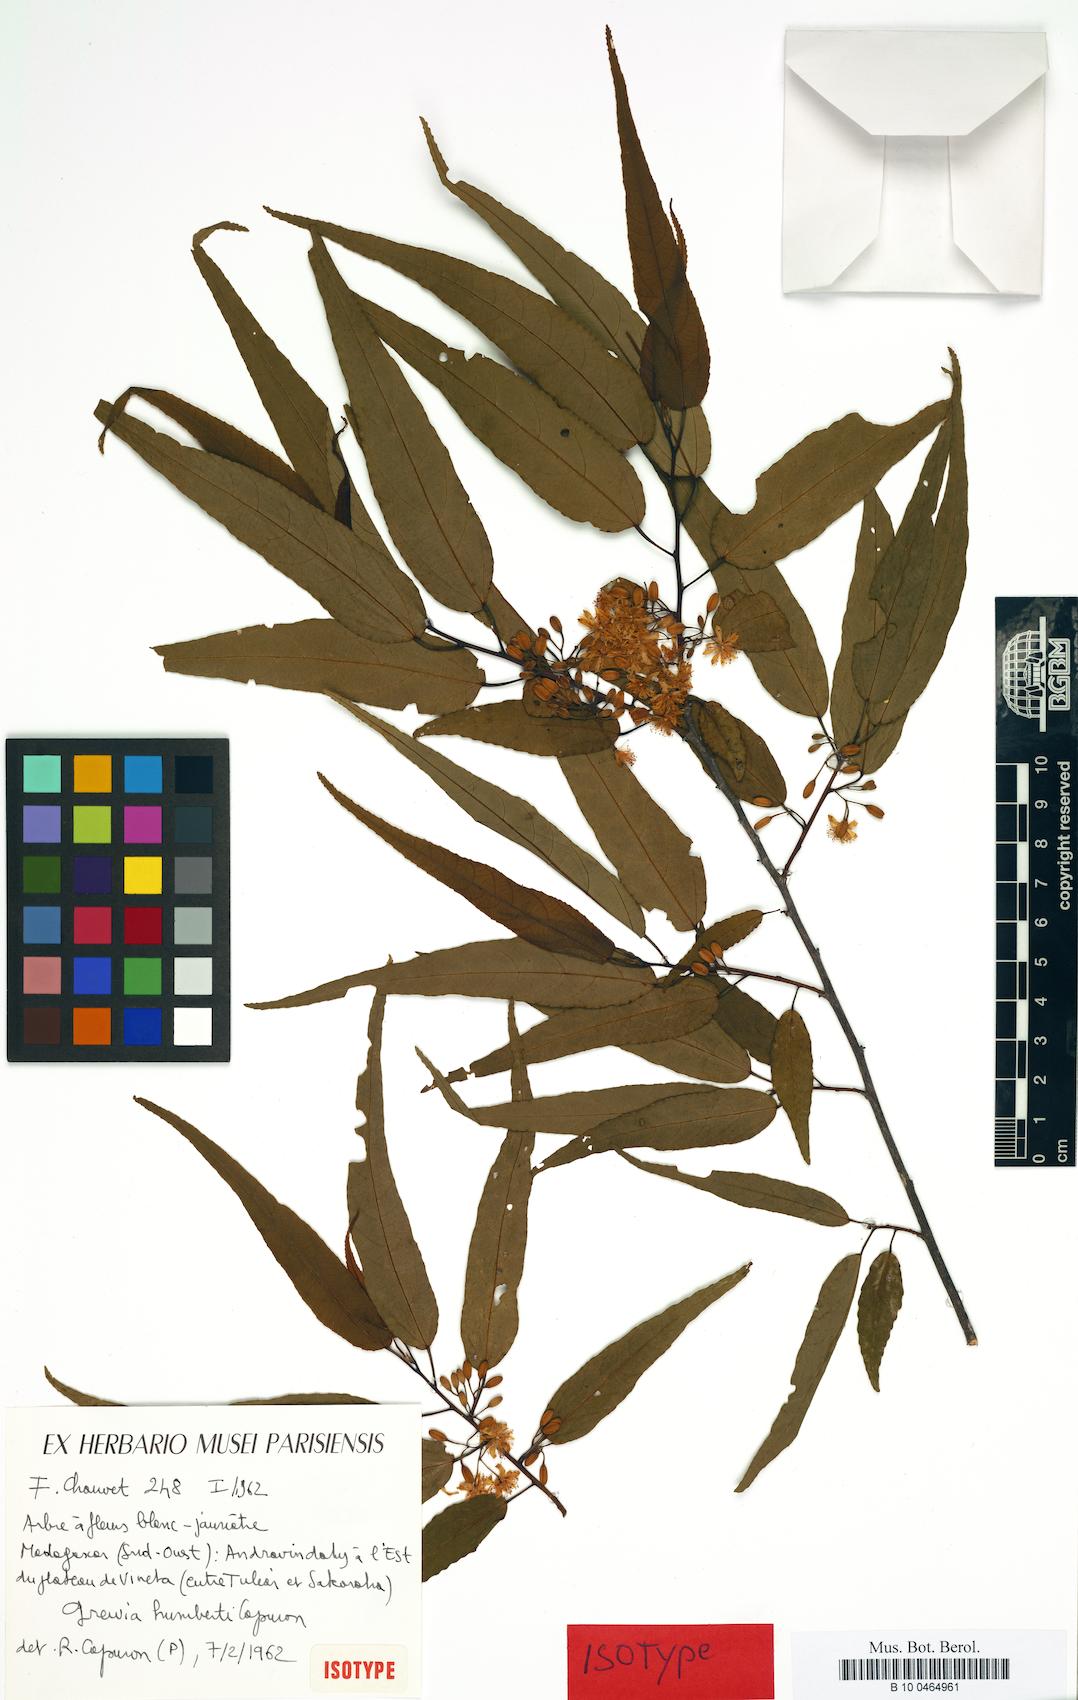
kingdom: Plantae
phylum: Tracheophyta
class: Magnoliopsida
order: Malvales
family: Malvaceae
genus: Grewia
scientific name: Grewia humbertii
